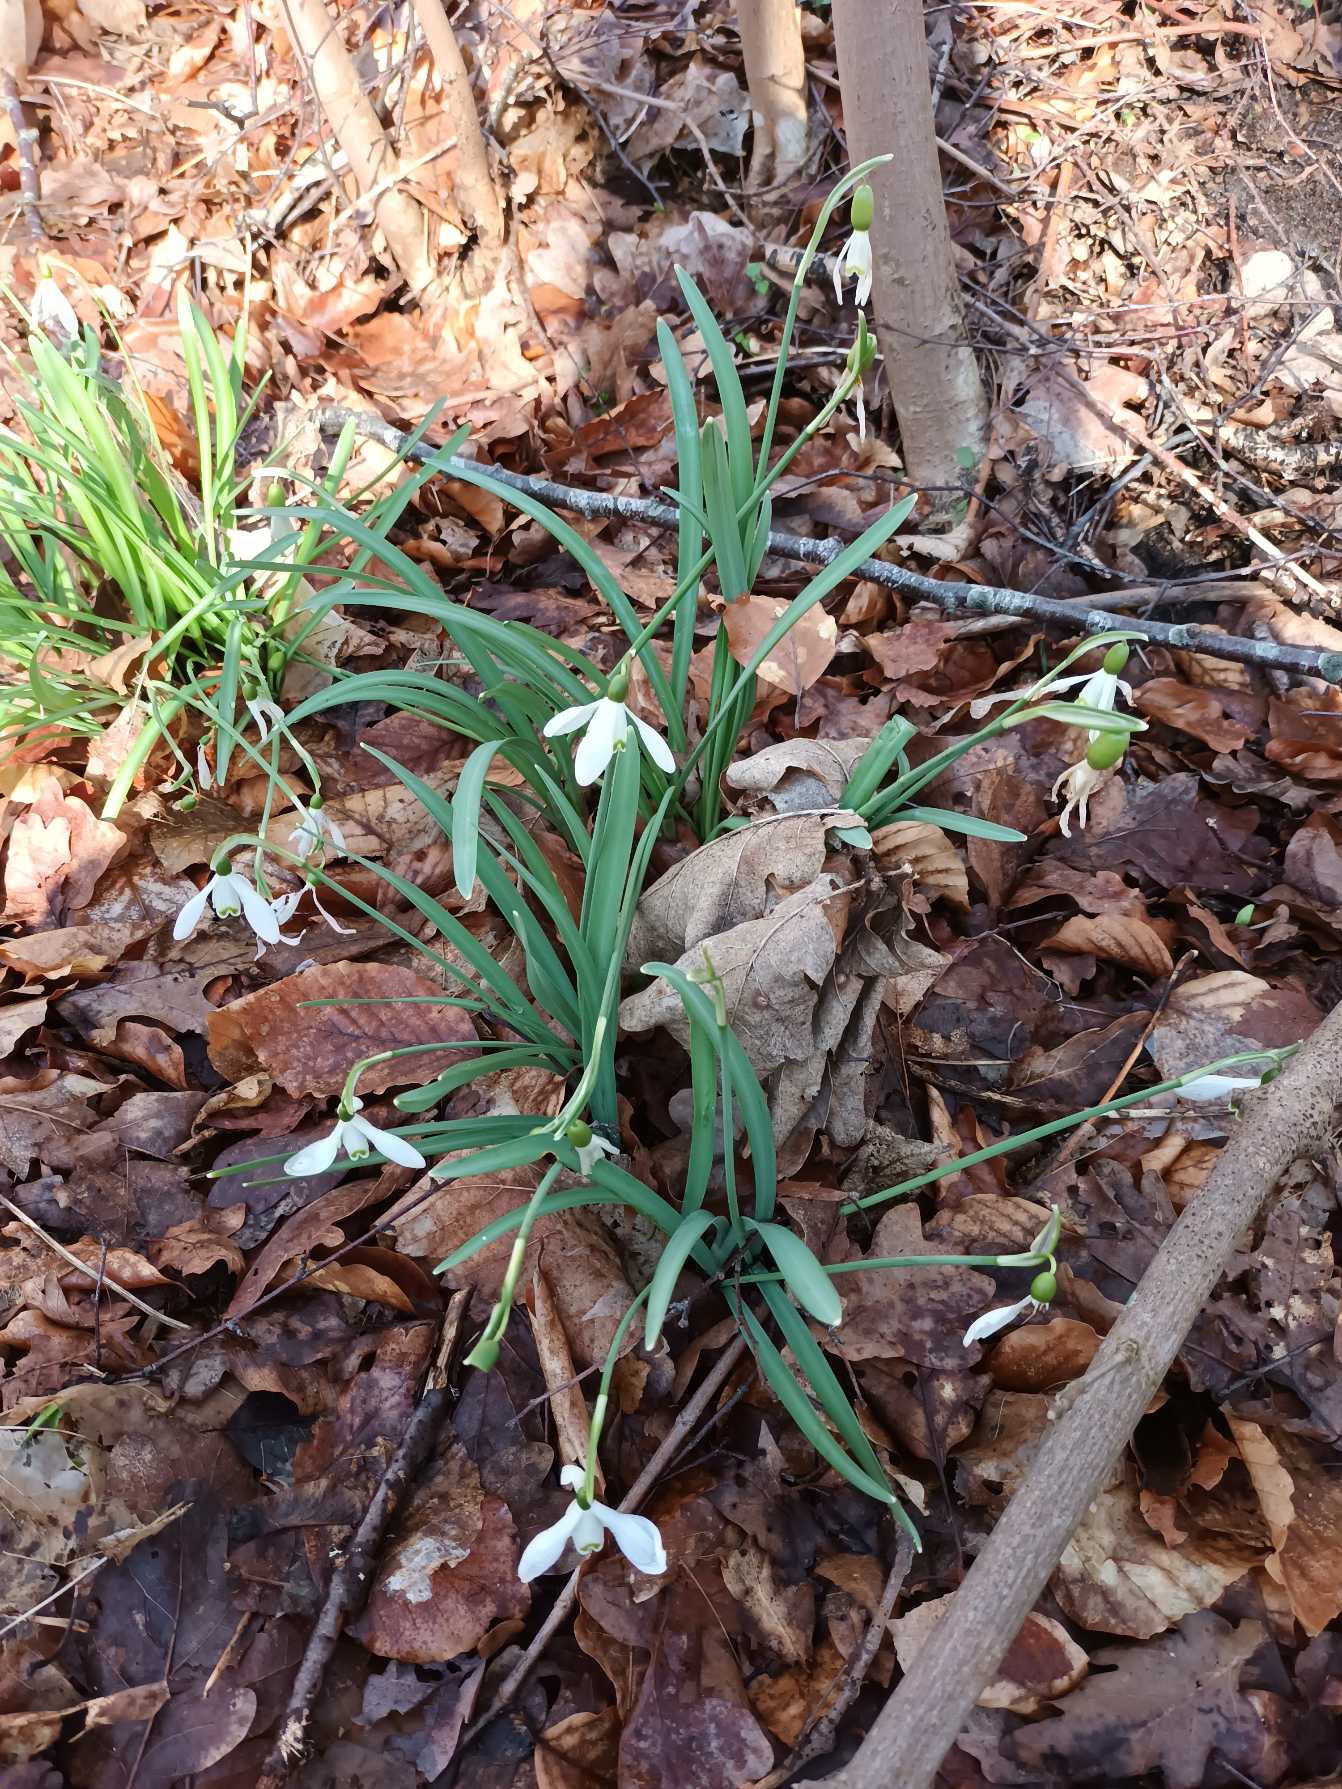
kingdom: Plantae
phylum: Tracheophyta
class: Liliopsida
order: Asparagales
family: Amaryllidaceae
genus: Galanthus
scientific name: Galanthus nivalis
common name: Vintergæk
